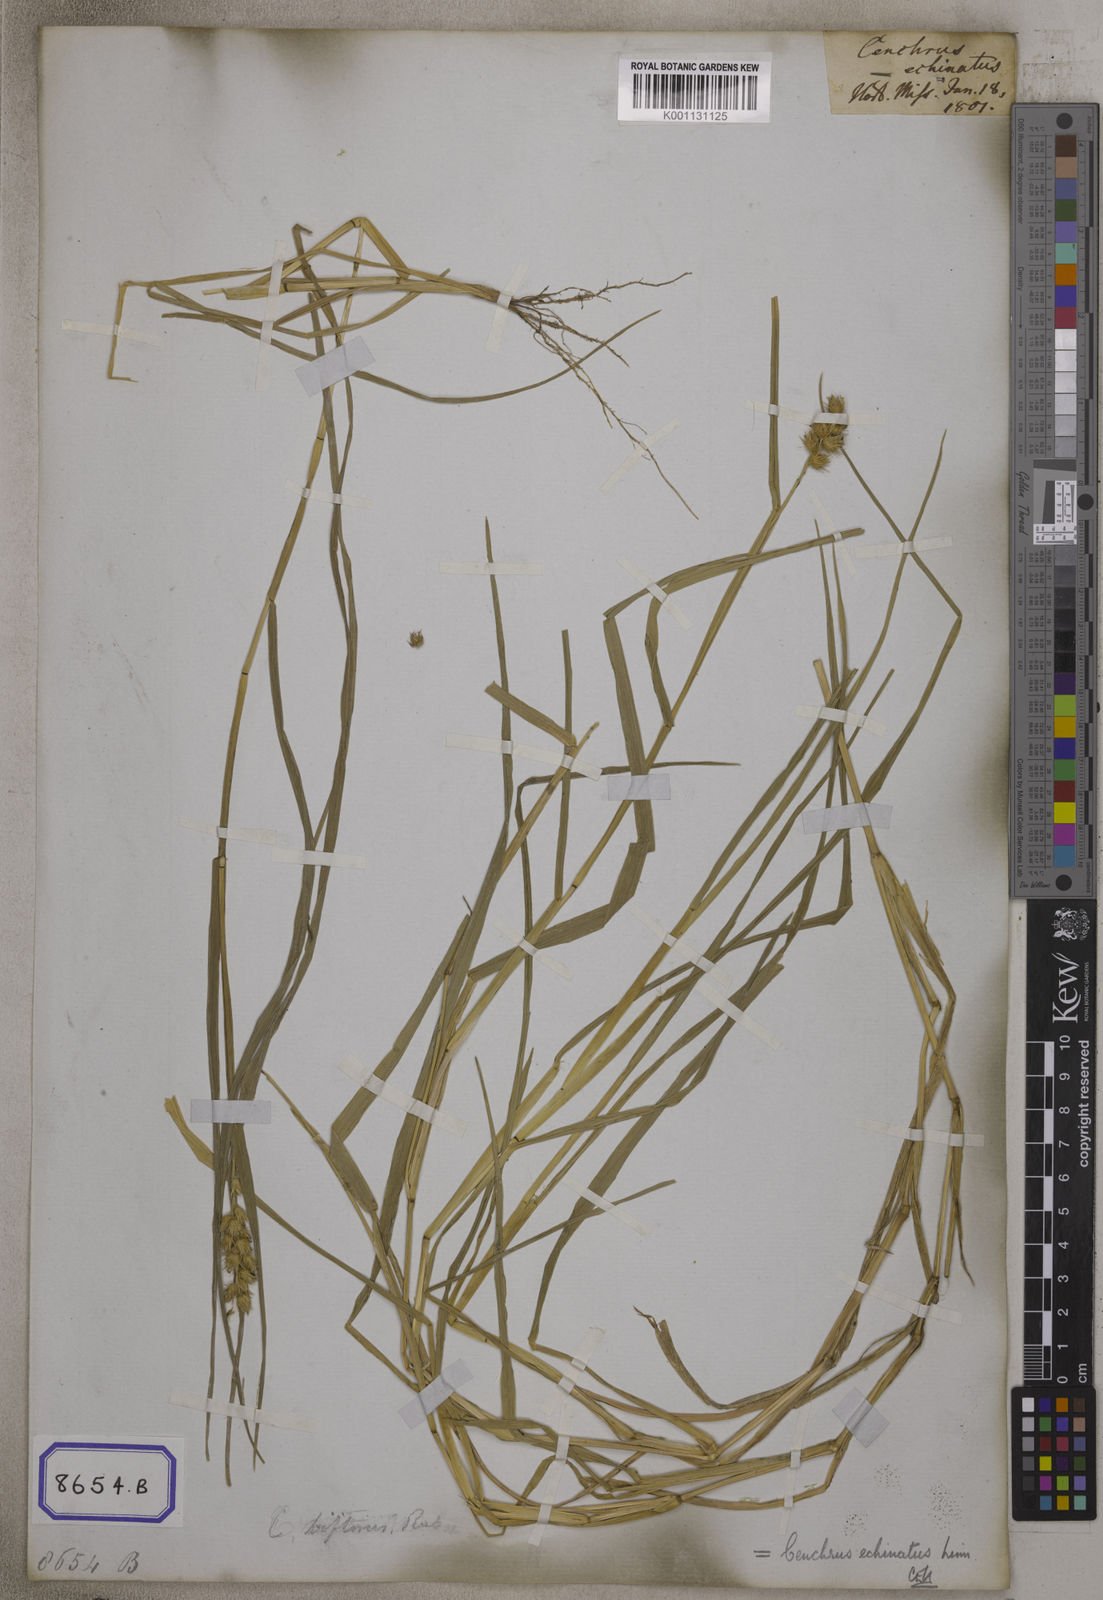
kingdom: Plantae
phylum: Tracheophyta
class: Liliopsida
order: Poales
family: Poaceae
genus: Cenchrus
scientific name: Cenchrus echinatus
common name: Southern sandbur
